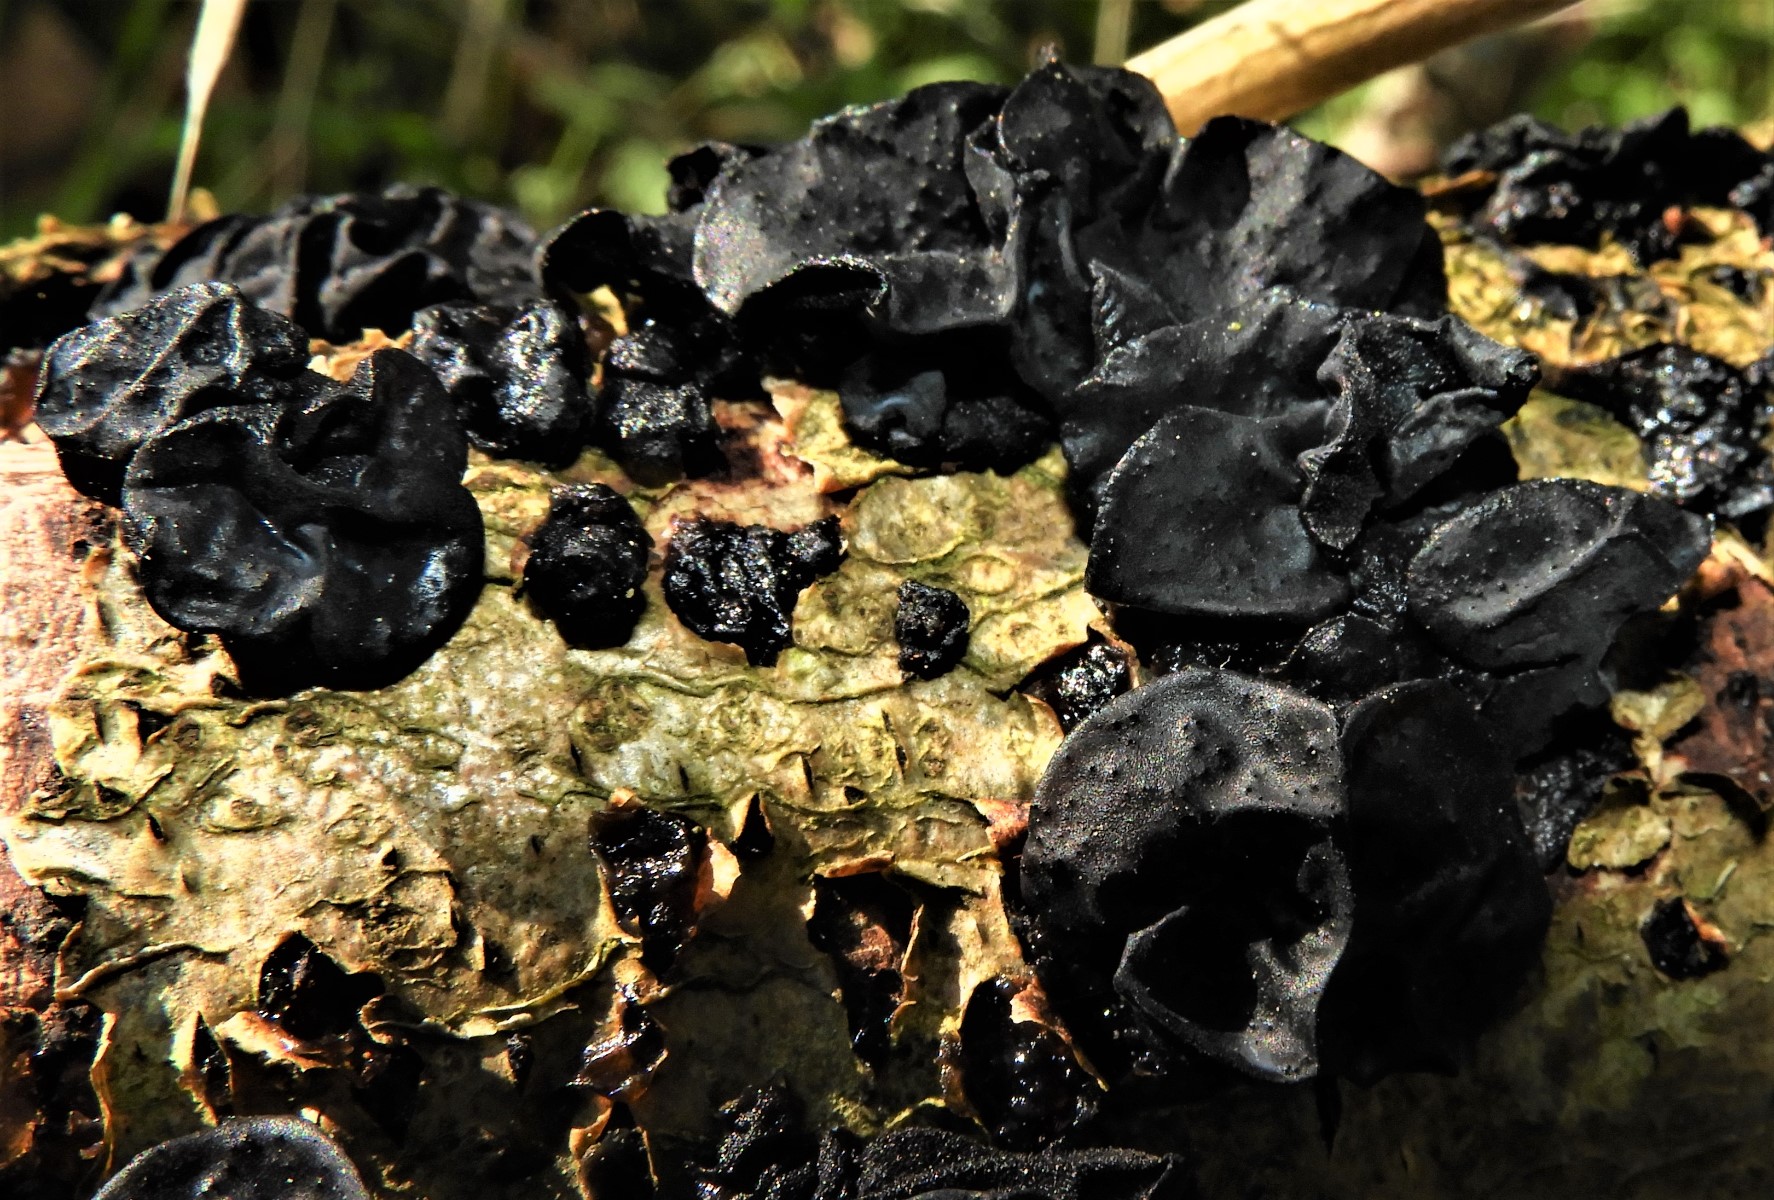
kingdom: Fungi
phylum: Basidiomycota
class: Agaricomycetes
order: Auriculariales
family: Auriculariaceae
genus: Exidia
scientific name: Exidia glandulosa
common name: ege-bævretop
